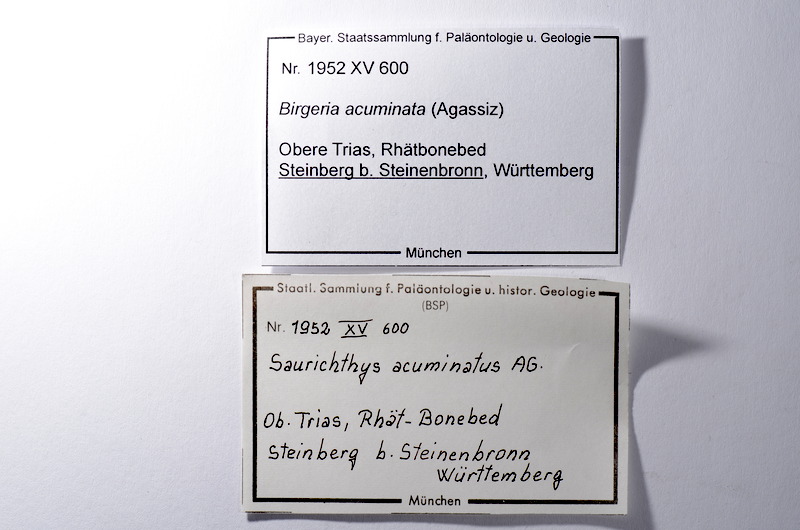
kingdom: Animalia
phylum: Chordata
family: Saurichthyidae
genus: Saurichthys
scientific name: Saurichthys acuminatus
